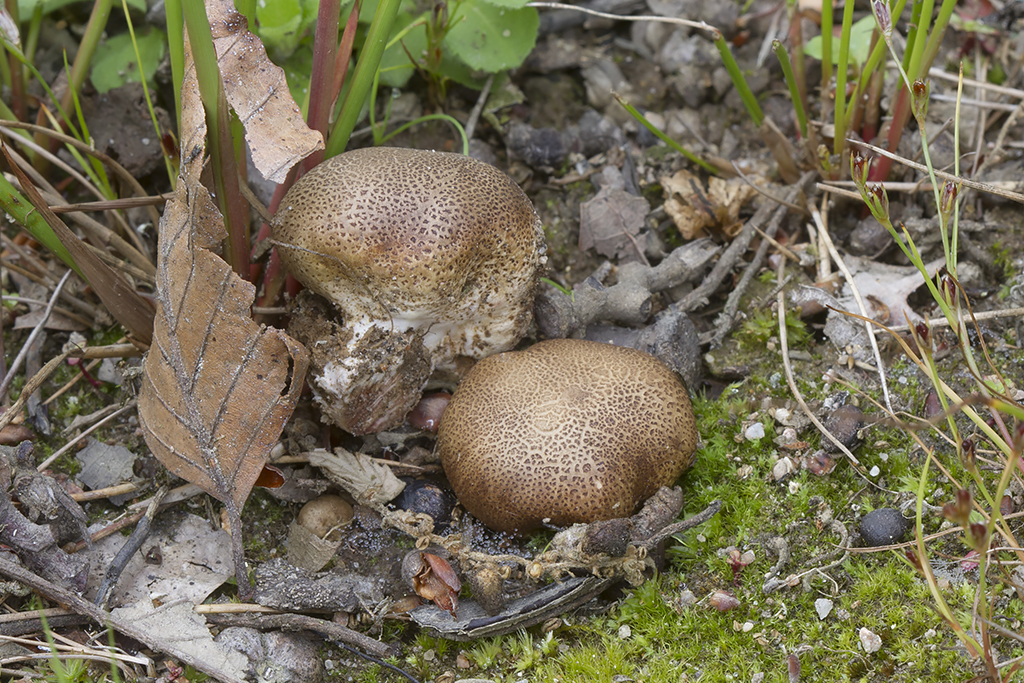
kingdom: Fungi
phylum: Basidiomycota
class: Agaricomycetes
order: Boletales
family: Sclerodermataceae
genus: Scleroderma
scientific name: Scleroderma areolatum
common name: plettet bruskbold
